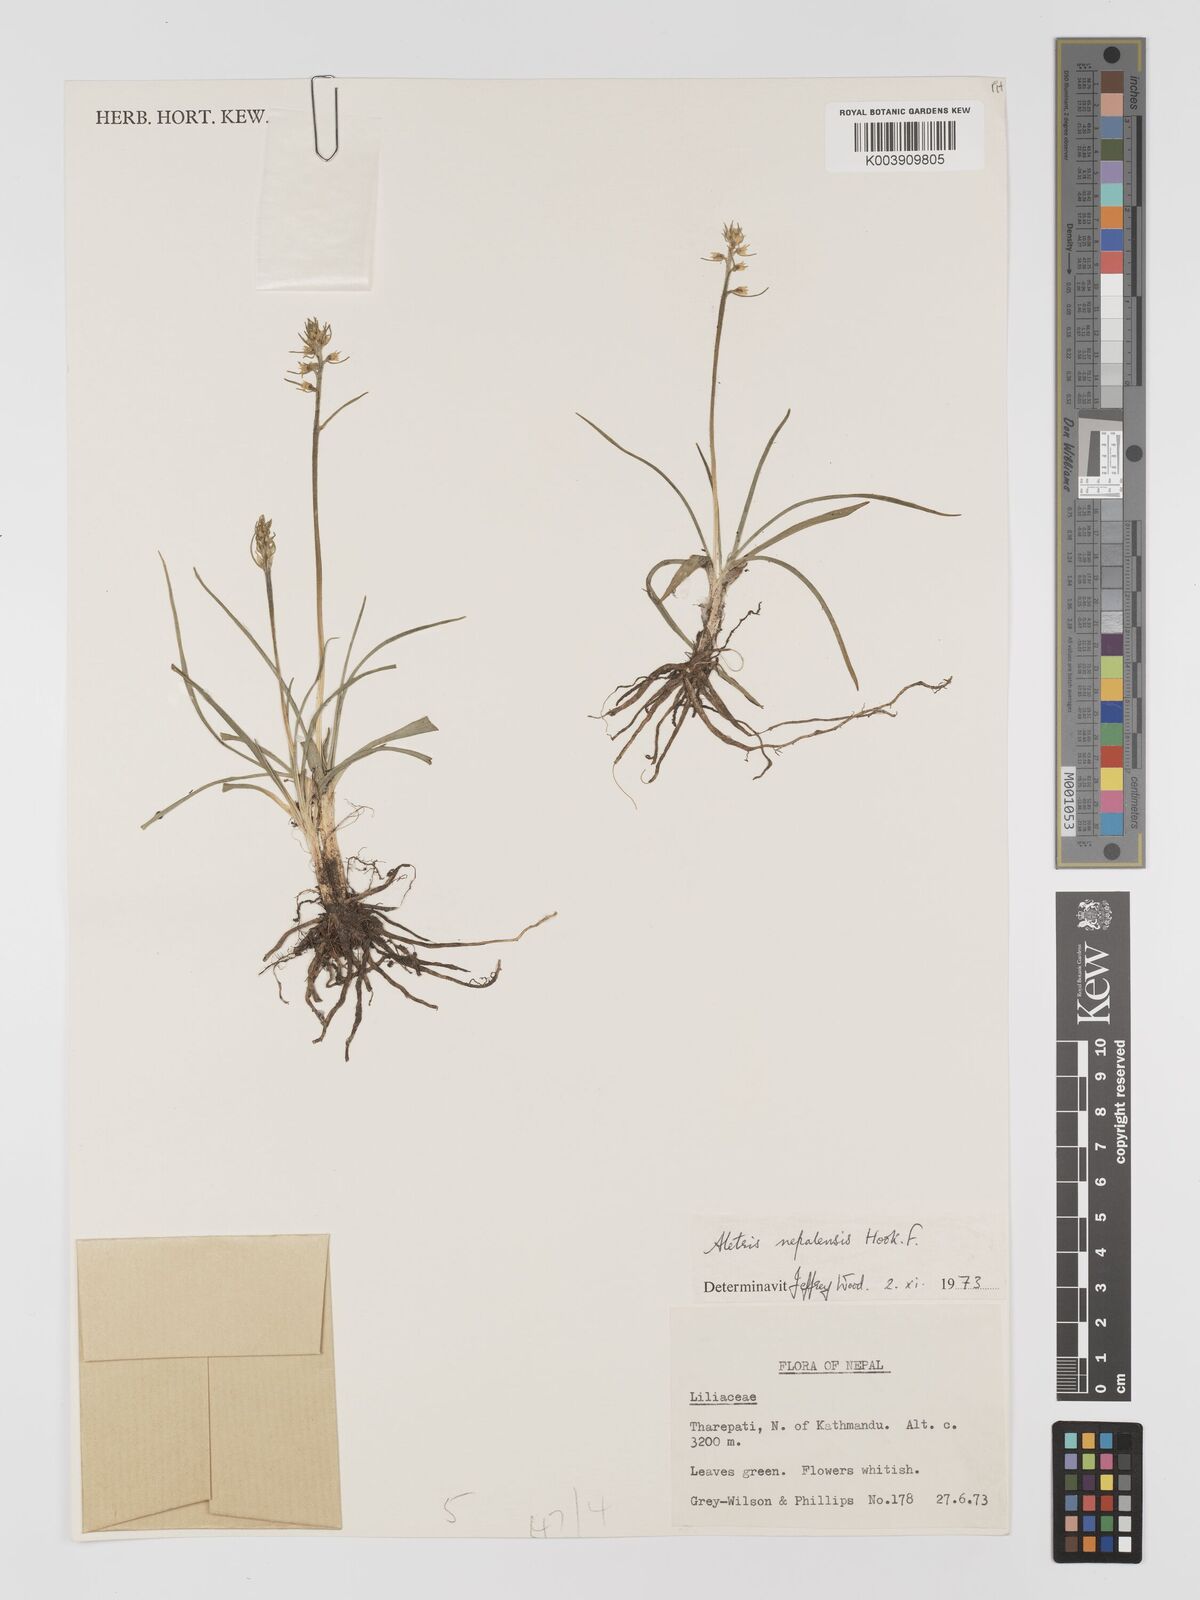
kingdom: Plantae
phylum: Tracheophyta
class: Liliopsida
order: Dioscoreales
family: Nartheciaceae
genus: Aletris
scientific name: Aletris pauciflora
